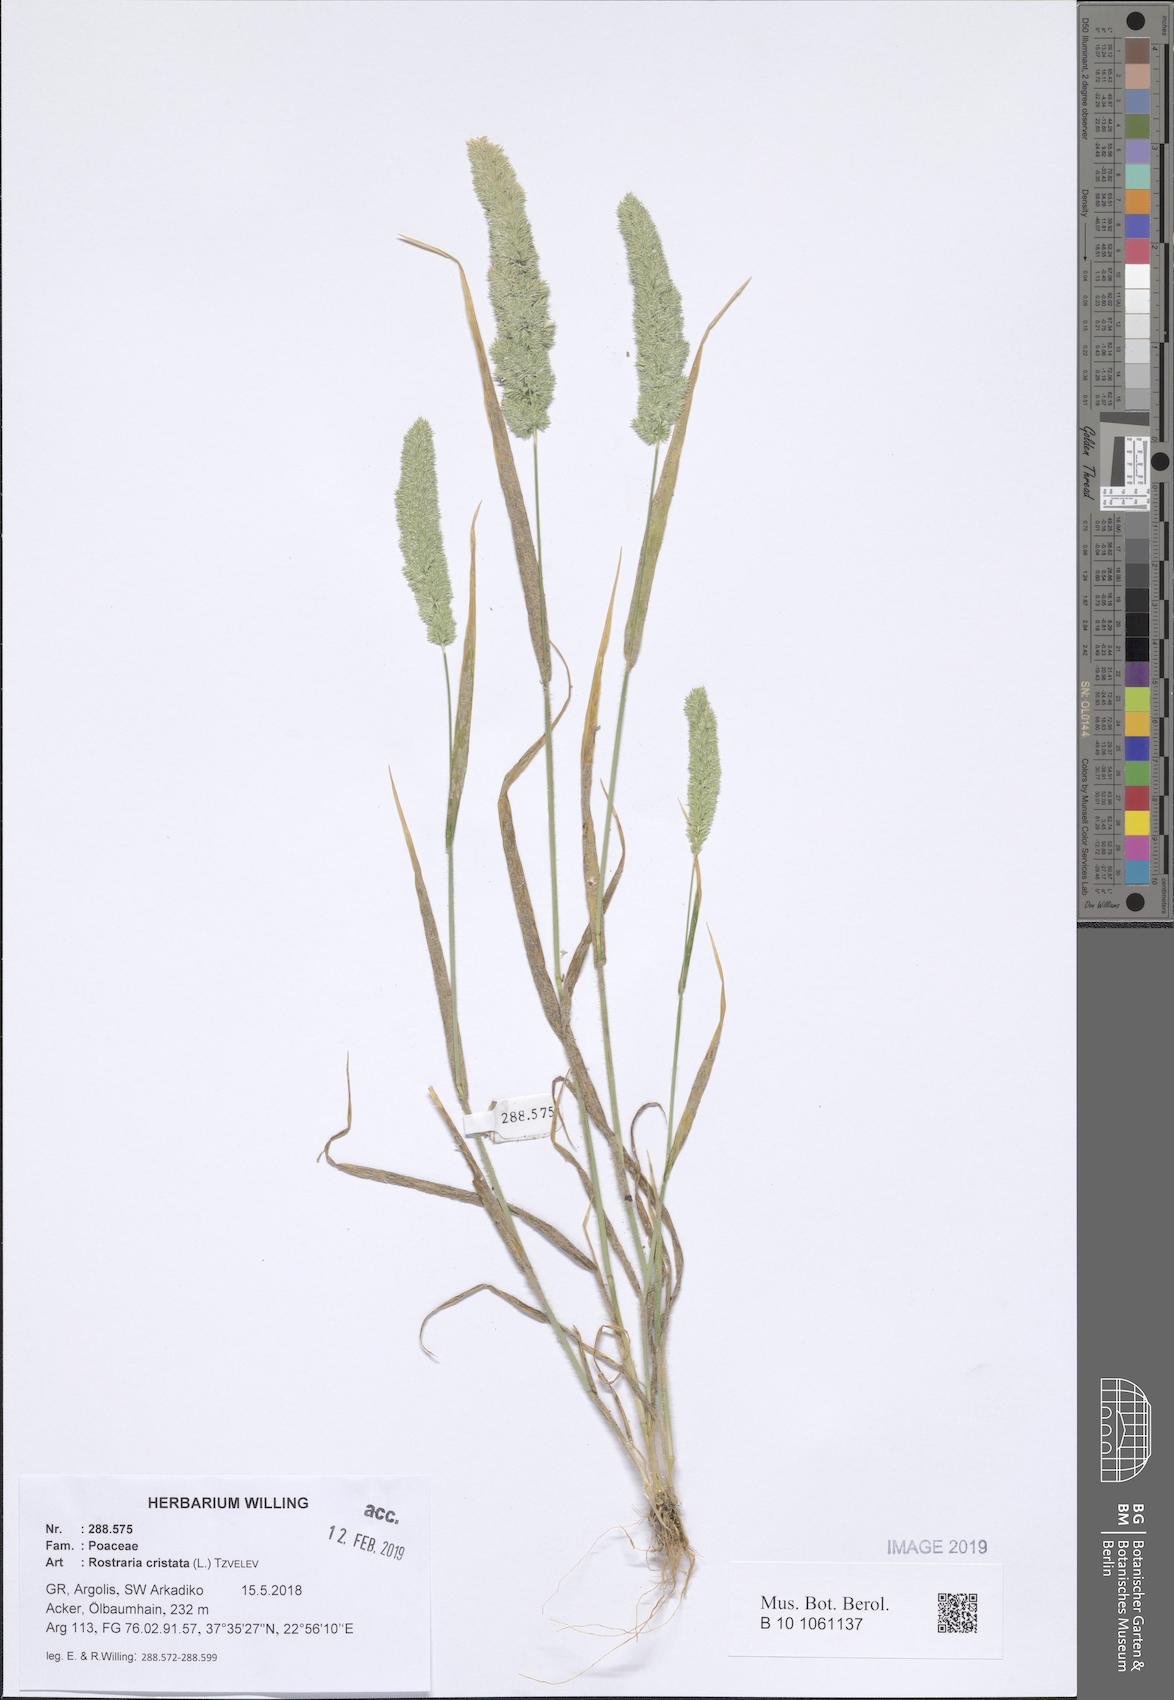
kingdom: Plantae
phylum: Tracheophyta
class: Liliopsida
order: Poales
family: Poaceae
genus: Rostraria
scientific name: Rostraria cristata
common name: Mediterranean hair-grass
